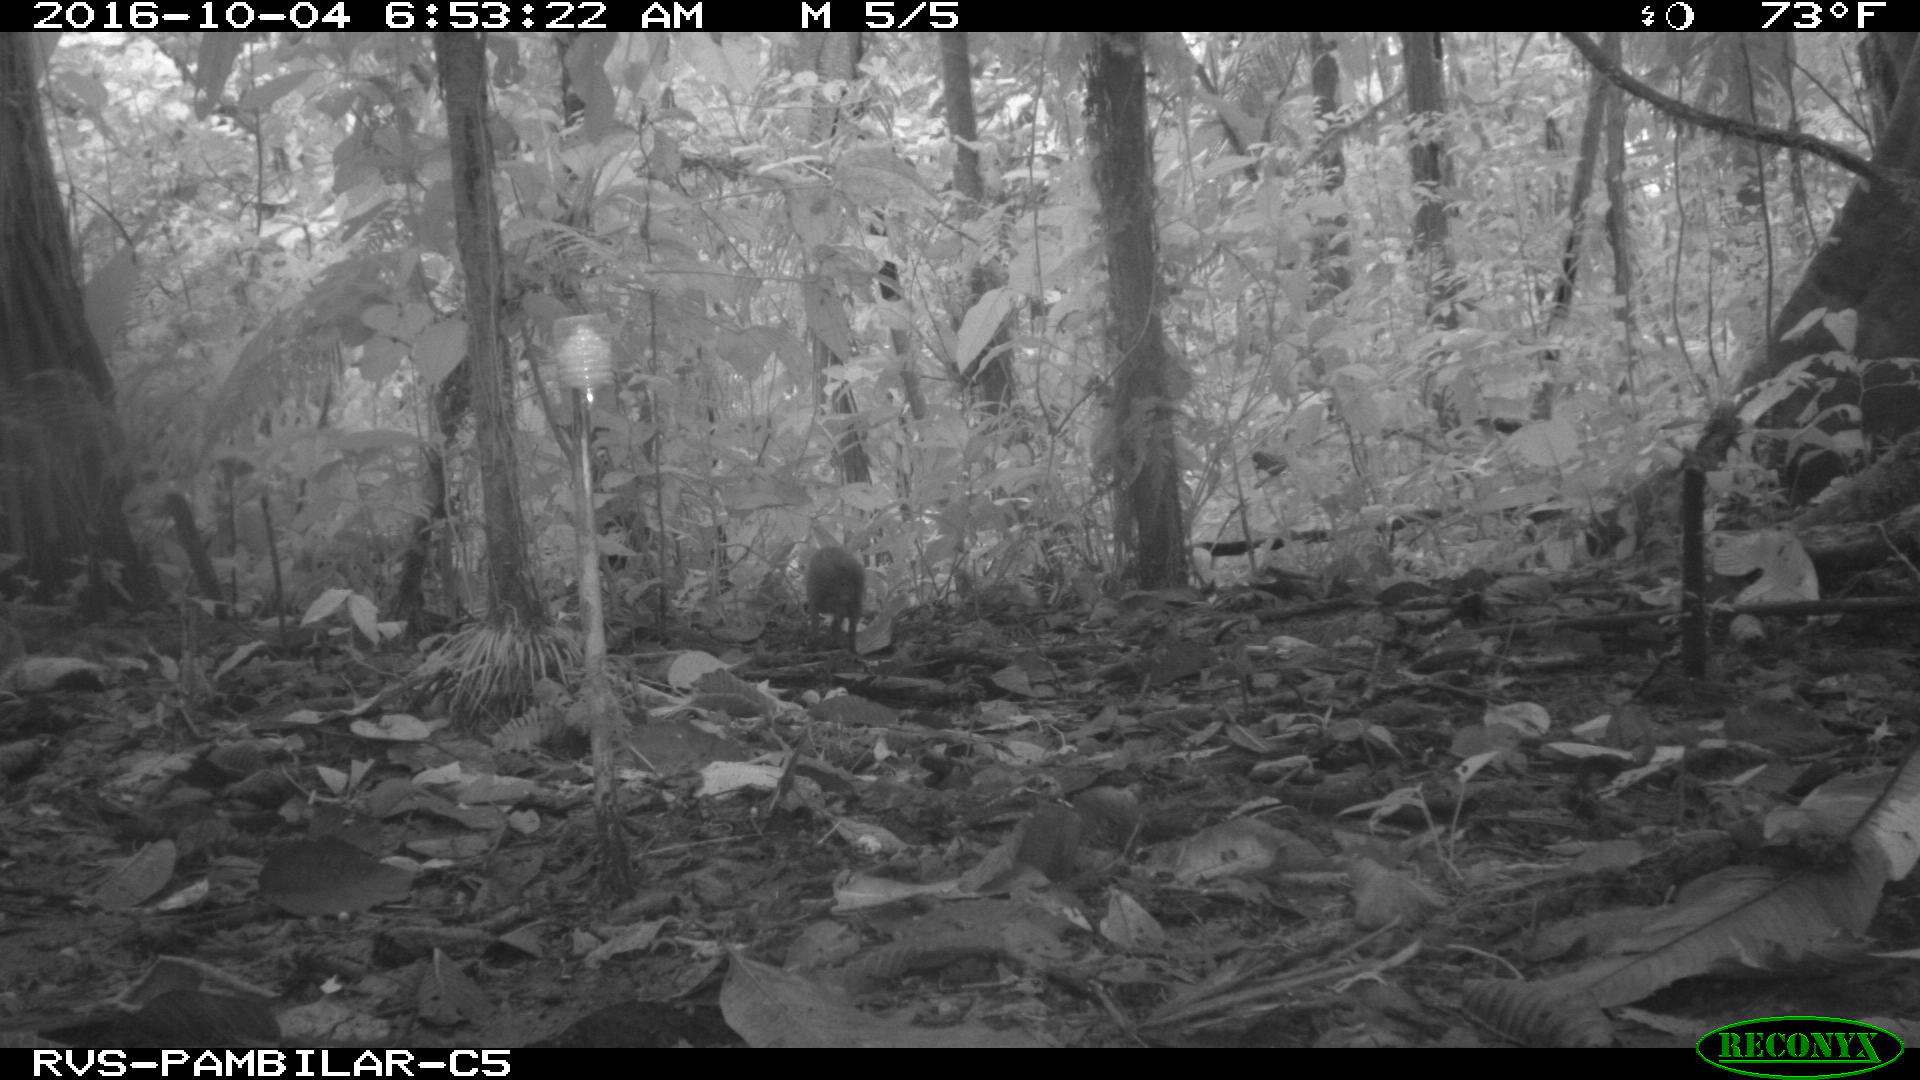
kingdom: Animalia
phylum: Chordata
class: Mammalia
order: Rodentia
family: Dasyproctidae
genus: Dasyprocta
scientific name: Dasyprocta punctata
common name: Central american agouti
